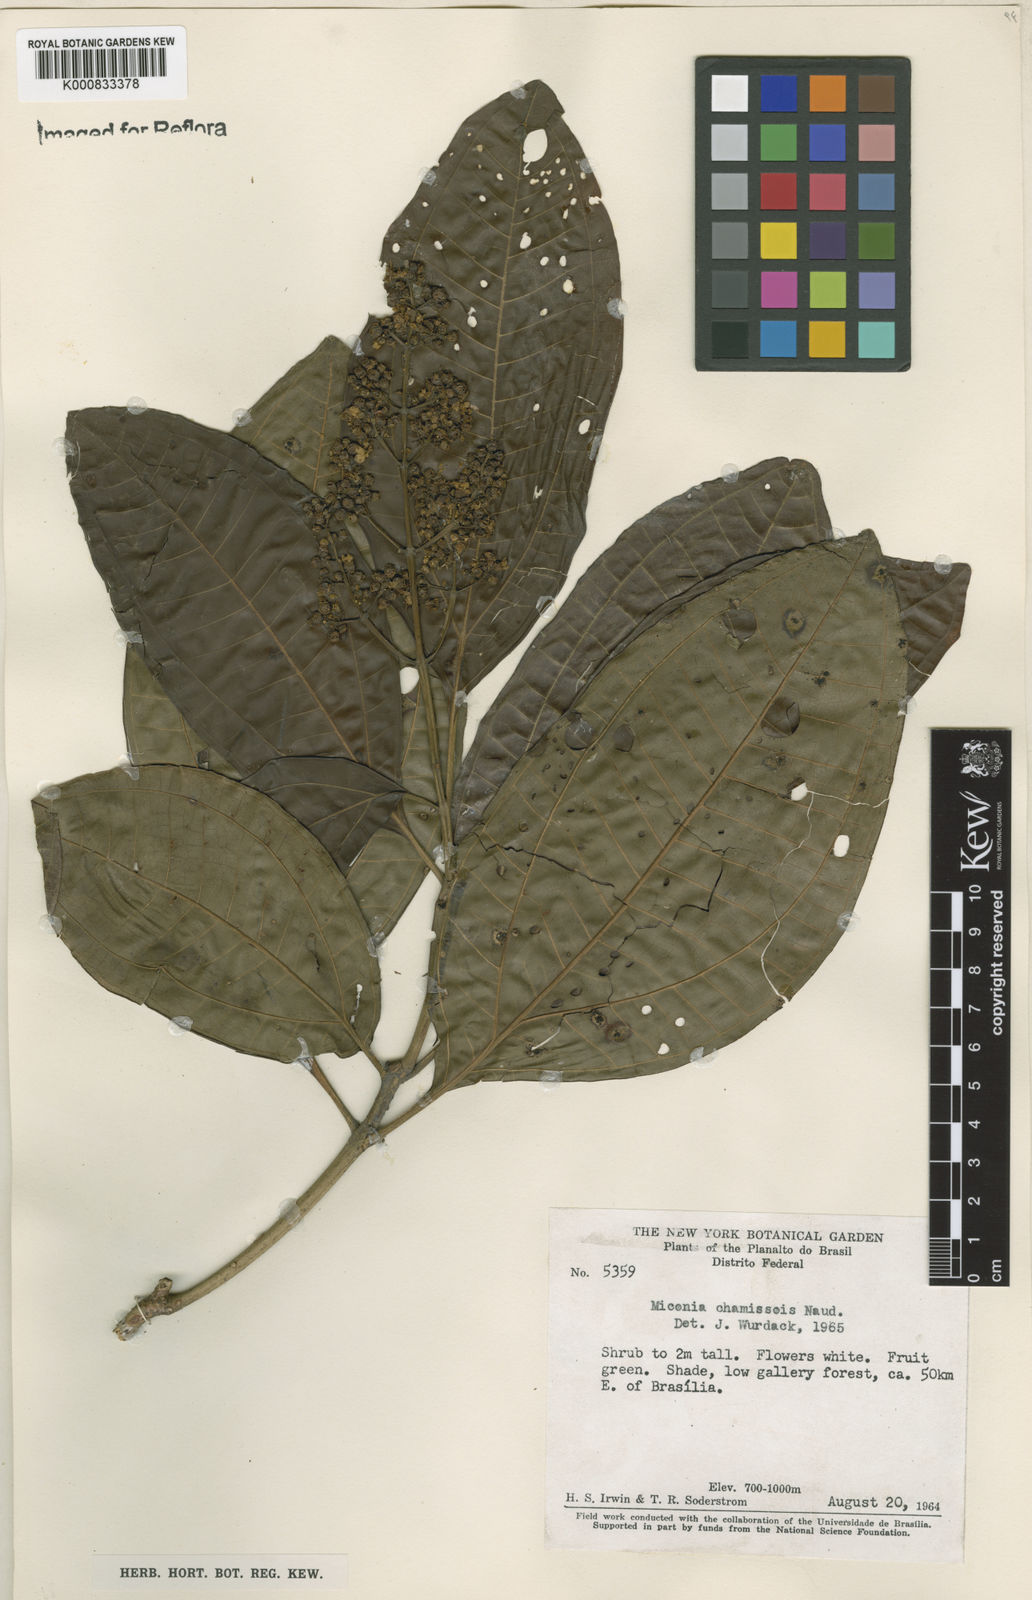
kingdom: Plantae
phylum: Tracheophyta
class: Magnoliopsida
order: Myrtales
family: Melastomataceae
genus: Miconia
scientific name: Miconia chamissois
